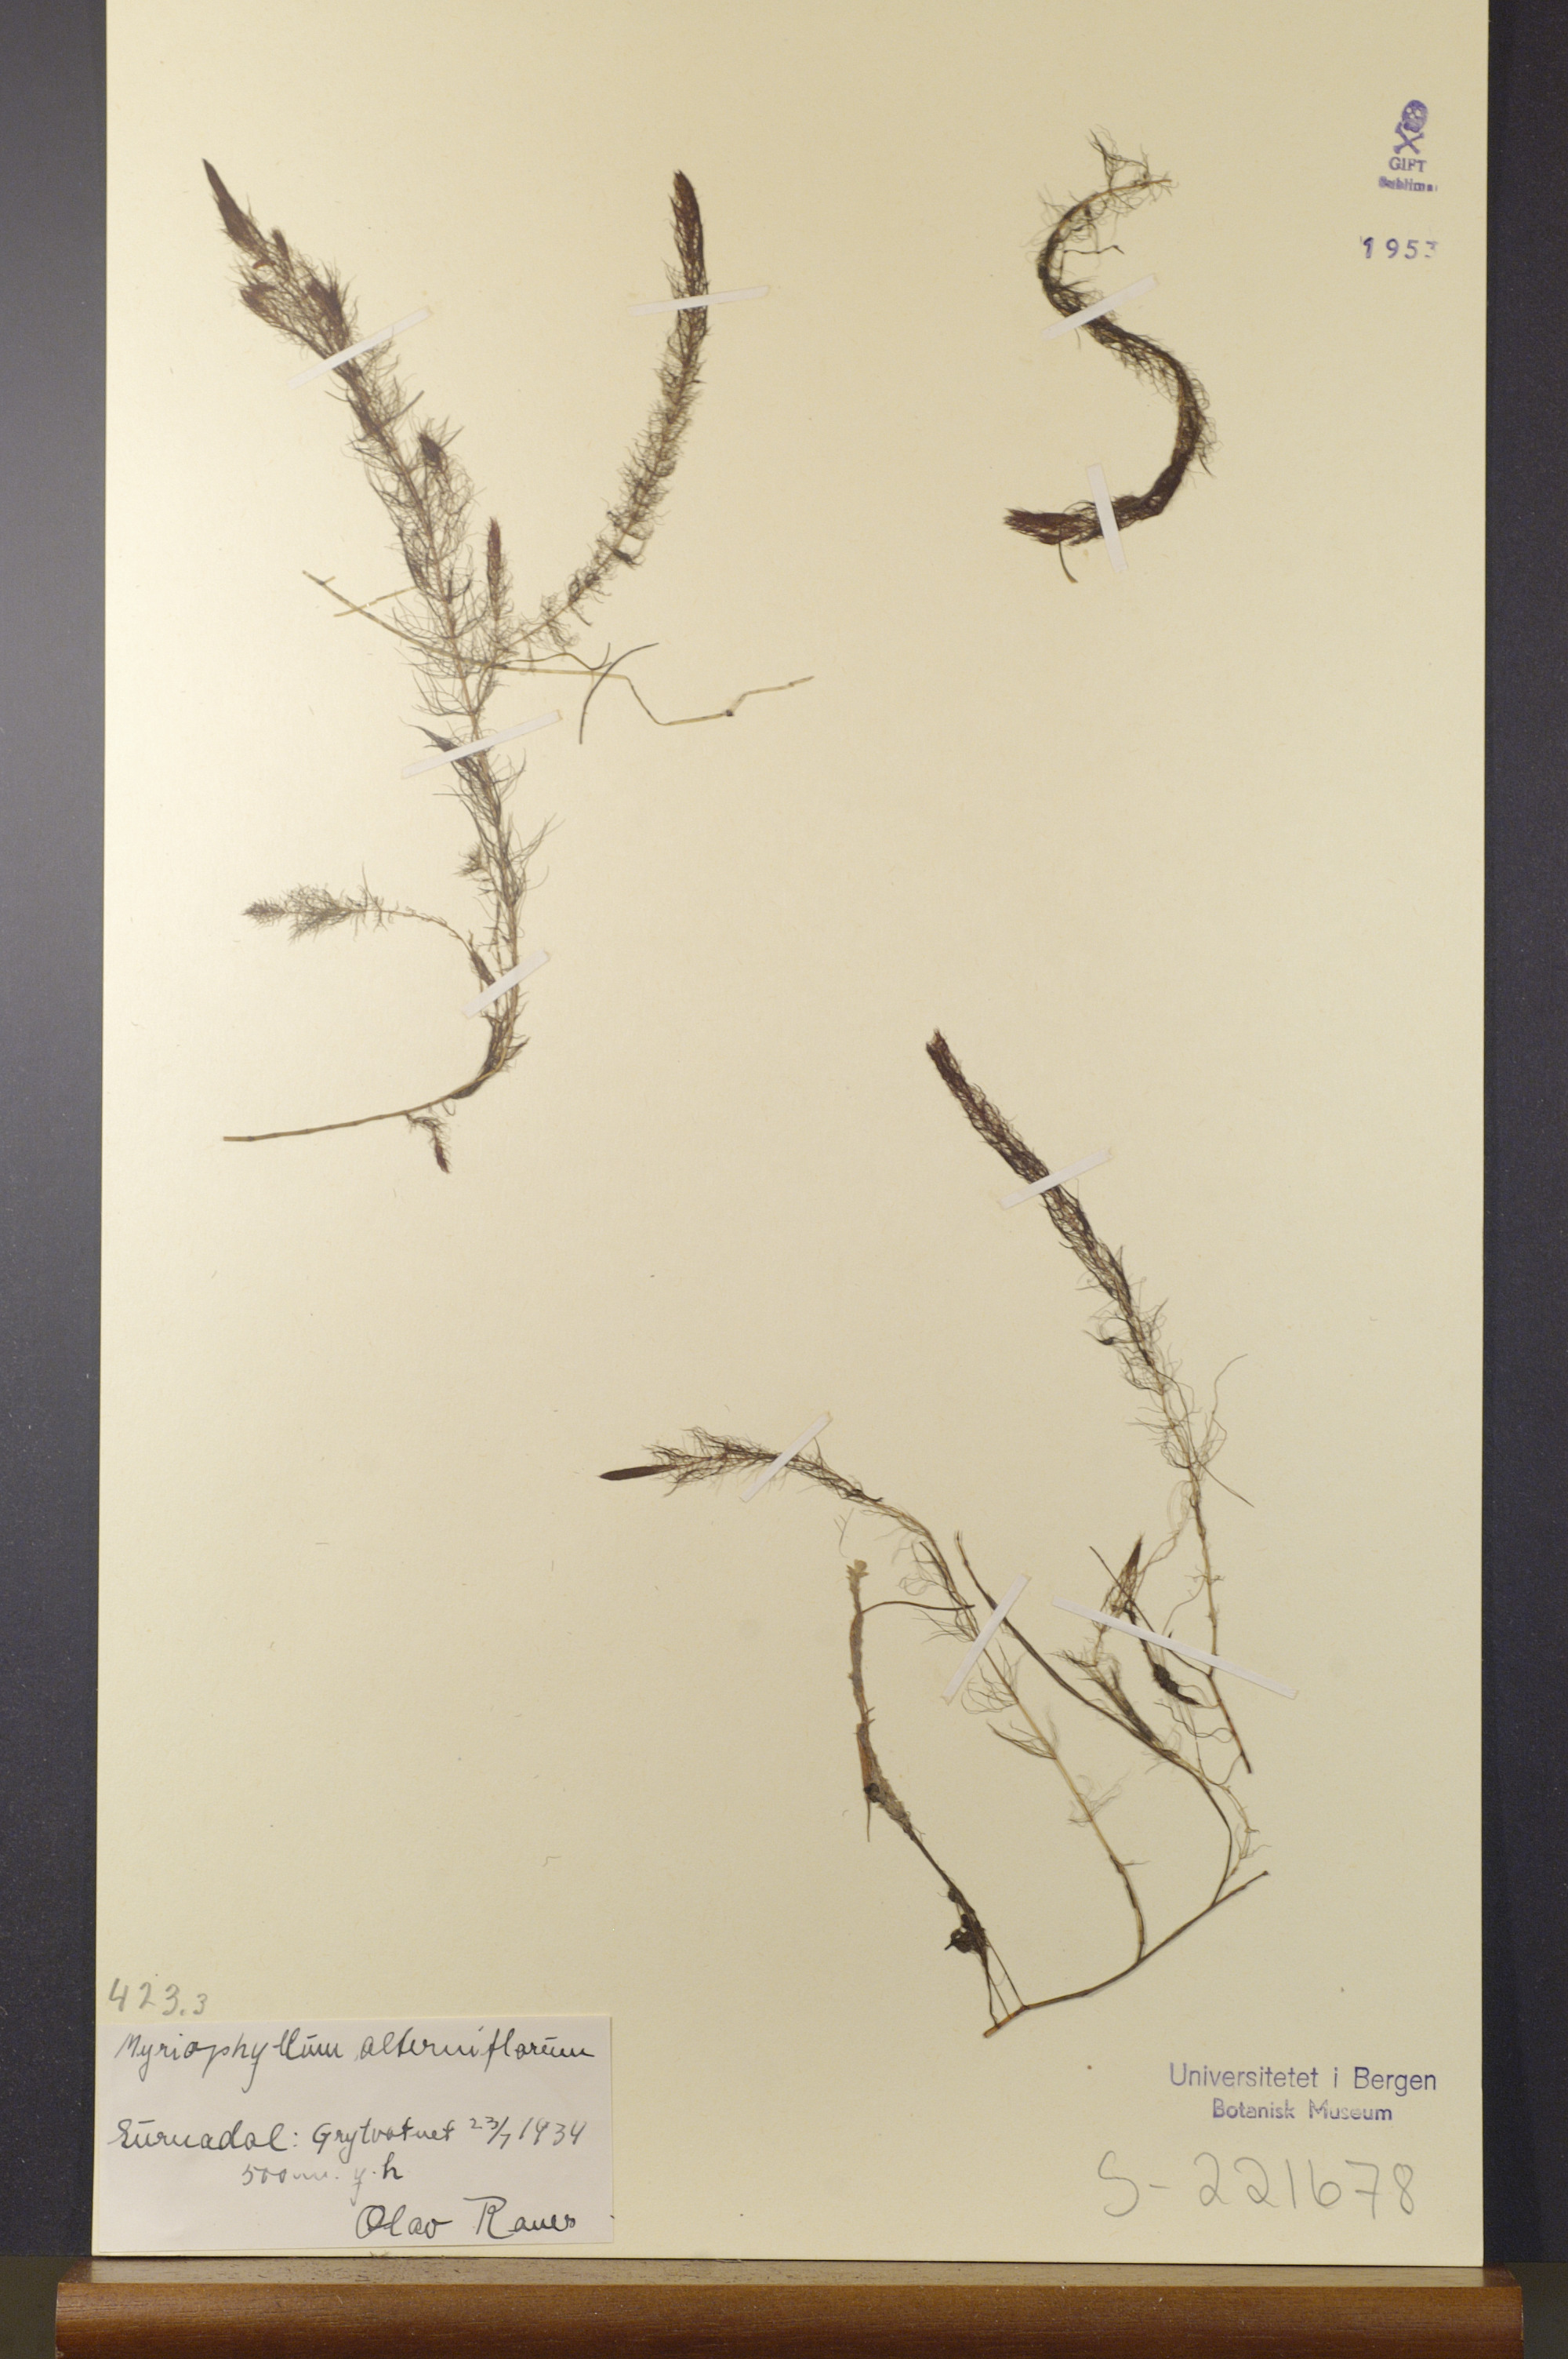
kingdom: Plantae
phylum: Tracheophyta
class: Magnoliopsida
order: Saxifragales
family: Haloragaceae
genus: Myriophyllum
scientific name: Myriophyllum alterniflorum
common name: Alternate water-milfoil
